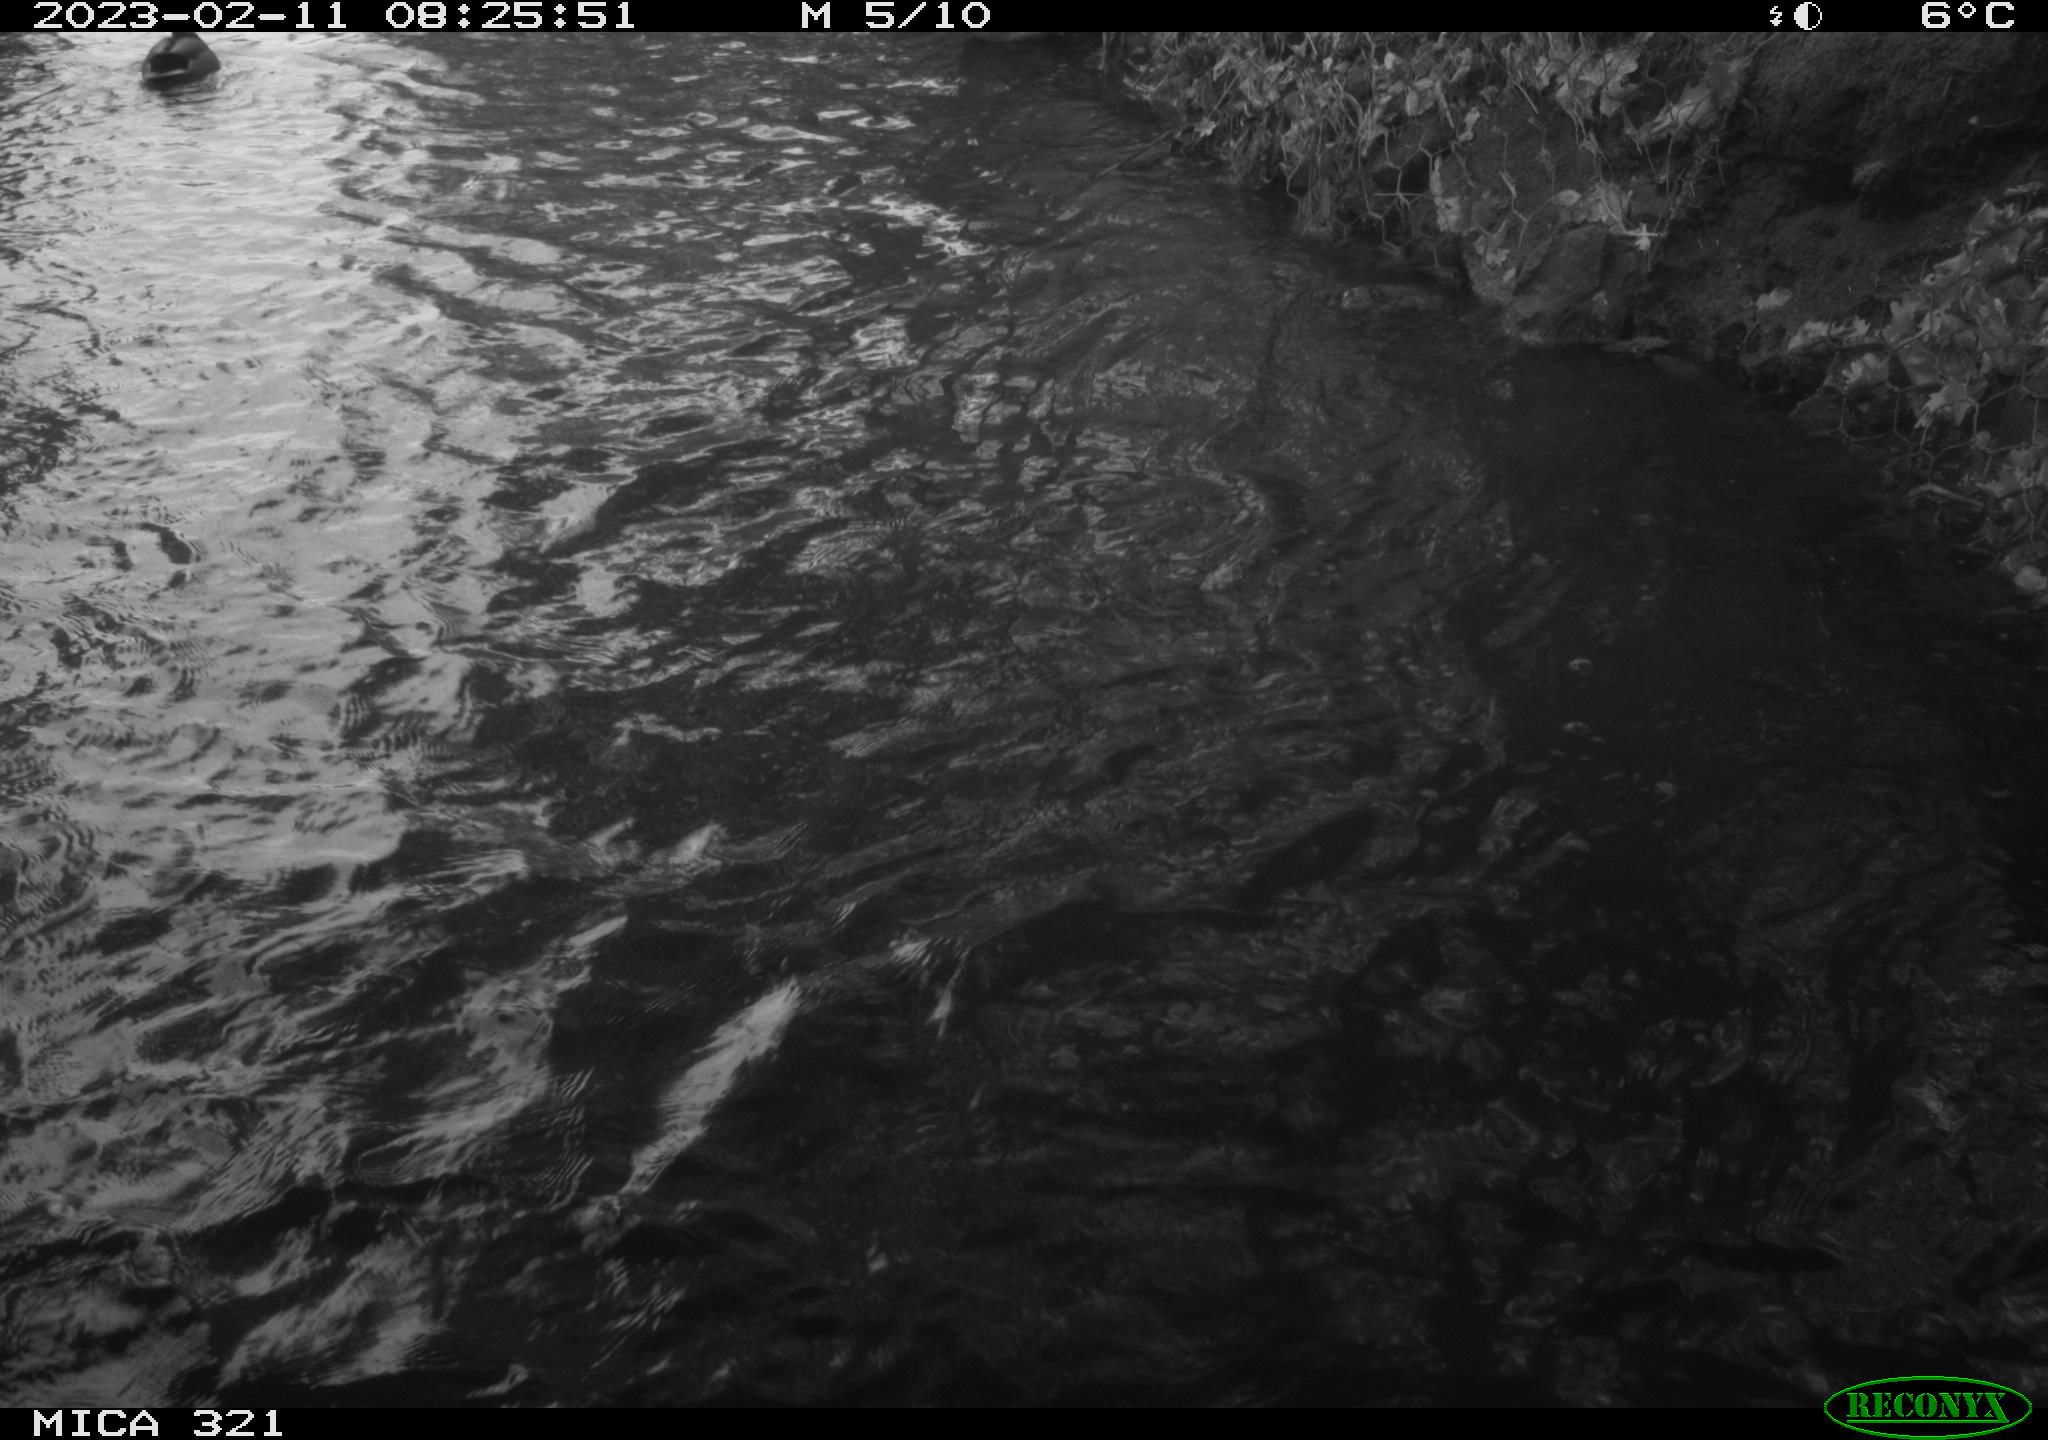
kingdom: Animalia
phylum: Chordata
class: Aves
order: Anseriformes
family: Anatidae
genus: Anas
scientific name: Anas
